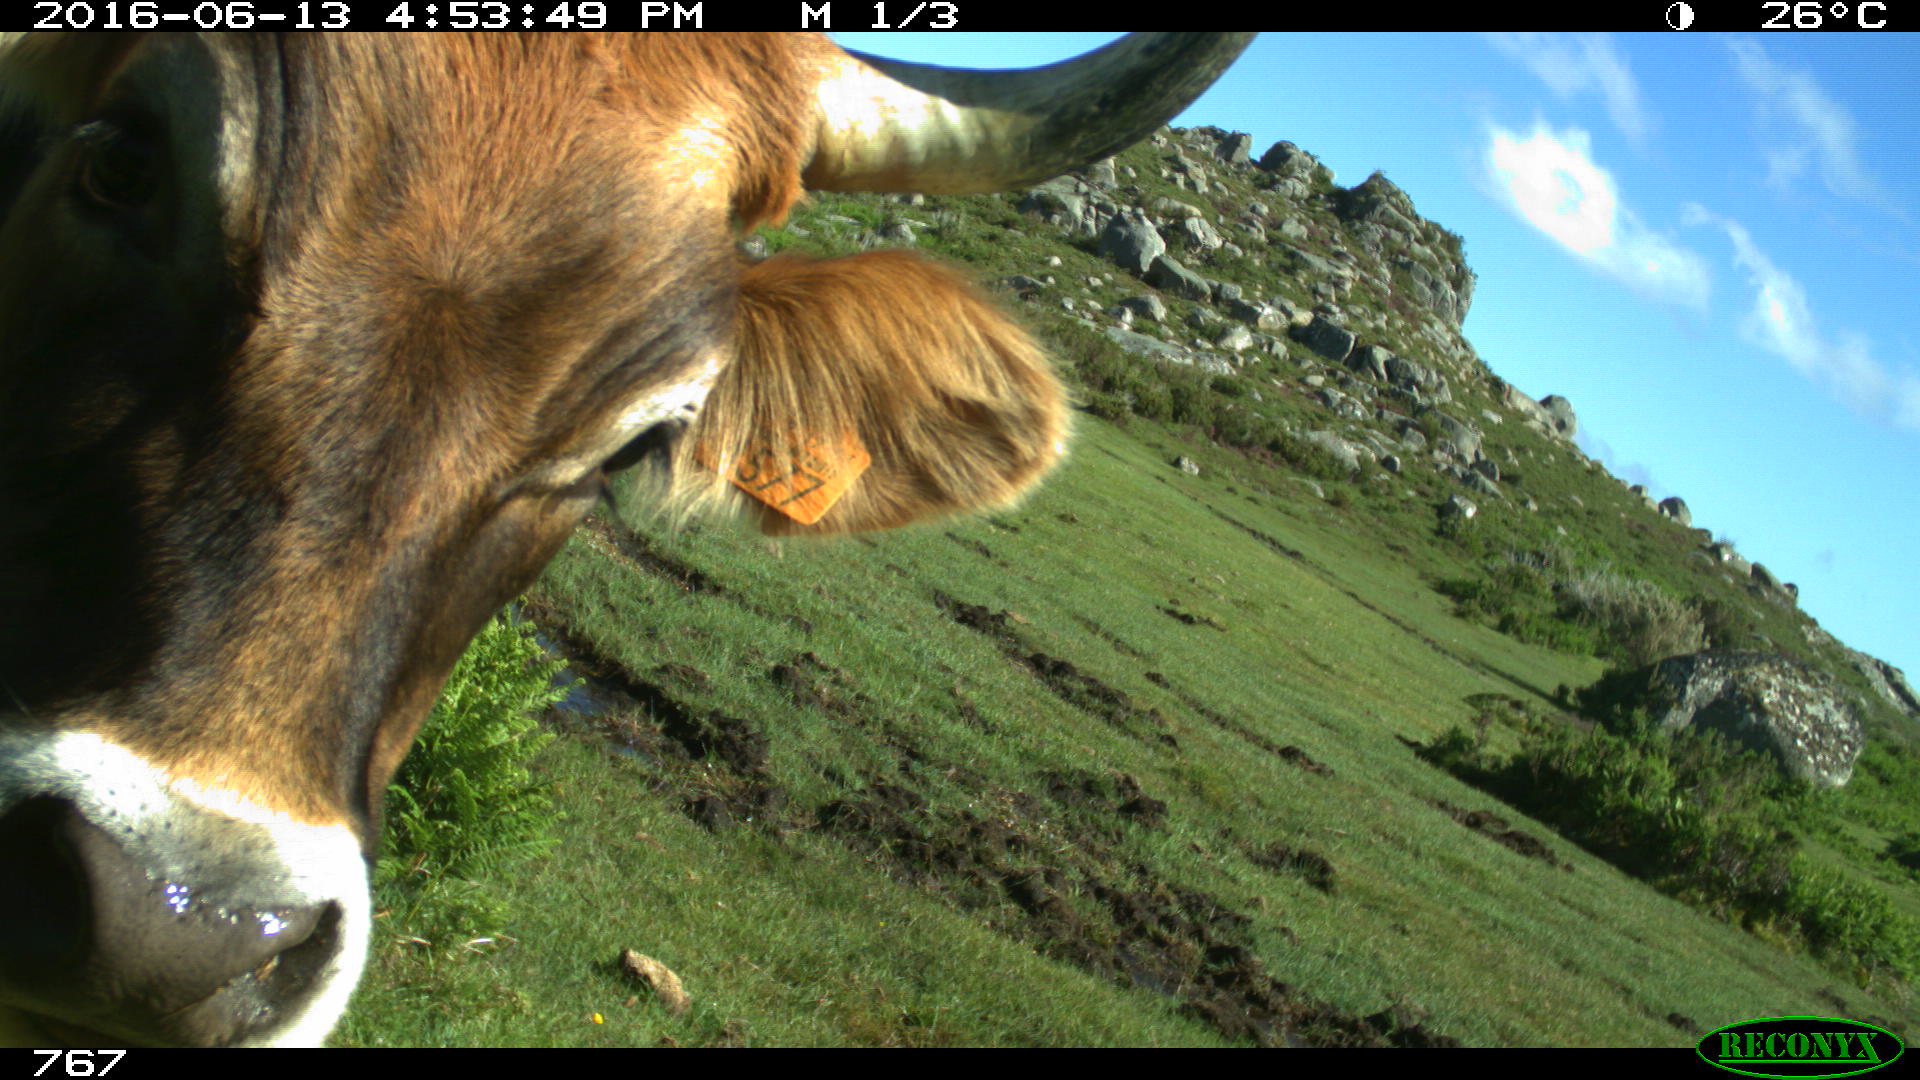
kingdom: Animalia
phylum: Chordata
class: Mammalia
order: Artiodactyla
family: Bovidae
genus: Bos
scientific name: Bos taurus
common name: Domesticated cattle
